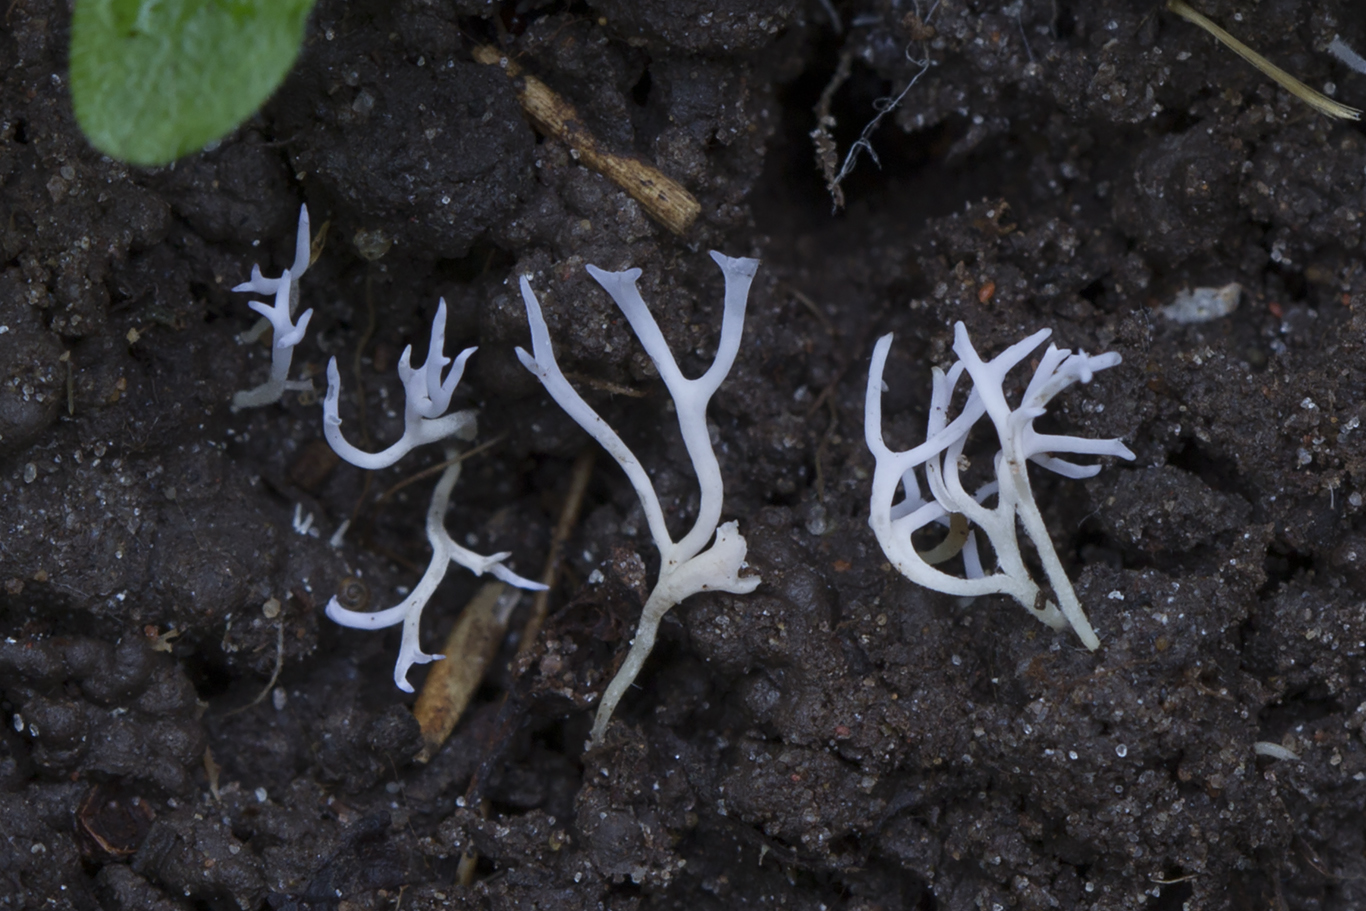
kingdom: Fungi
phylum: Basidiomycota
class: Agaricomycetes
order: Agaricales
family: Clavariaceae
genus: Ramariopsis
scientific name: Ramariopsis pulchella
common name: violet køllesvamp
